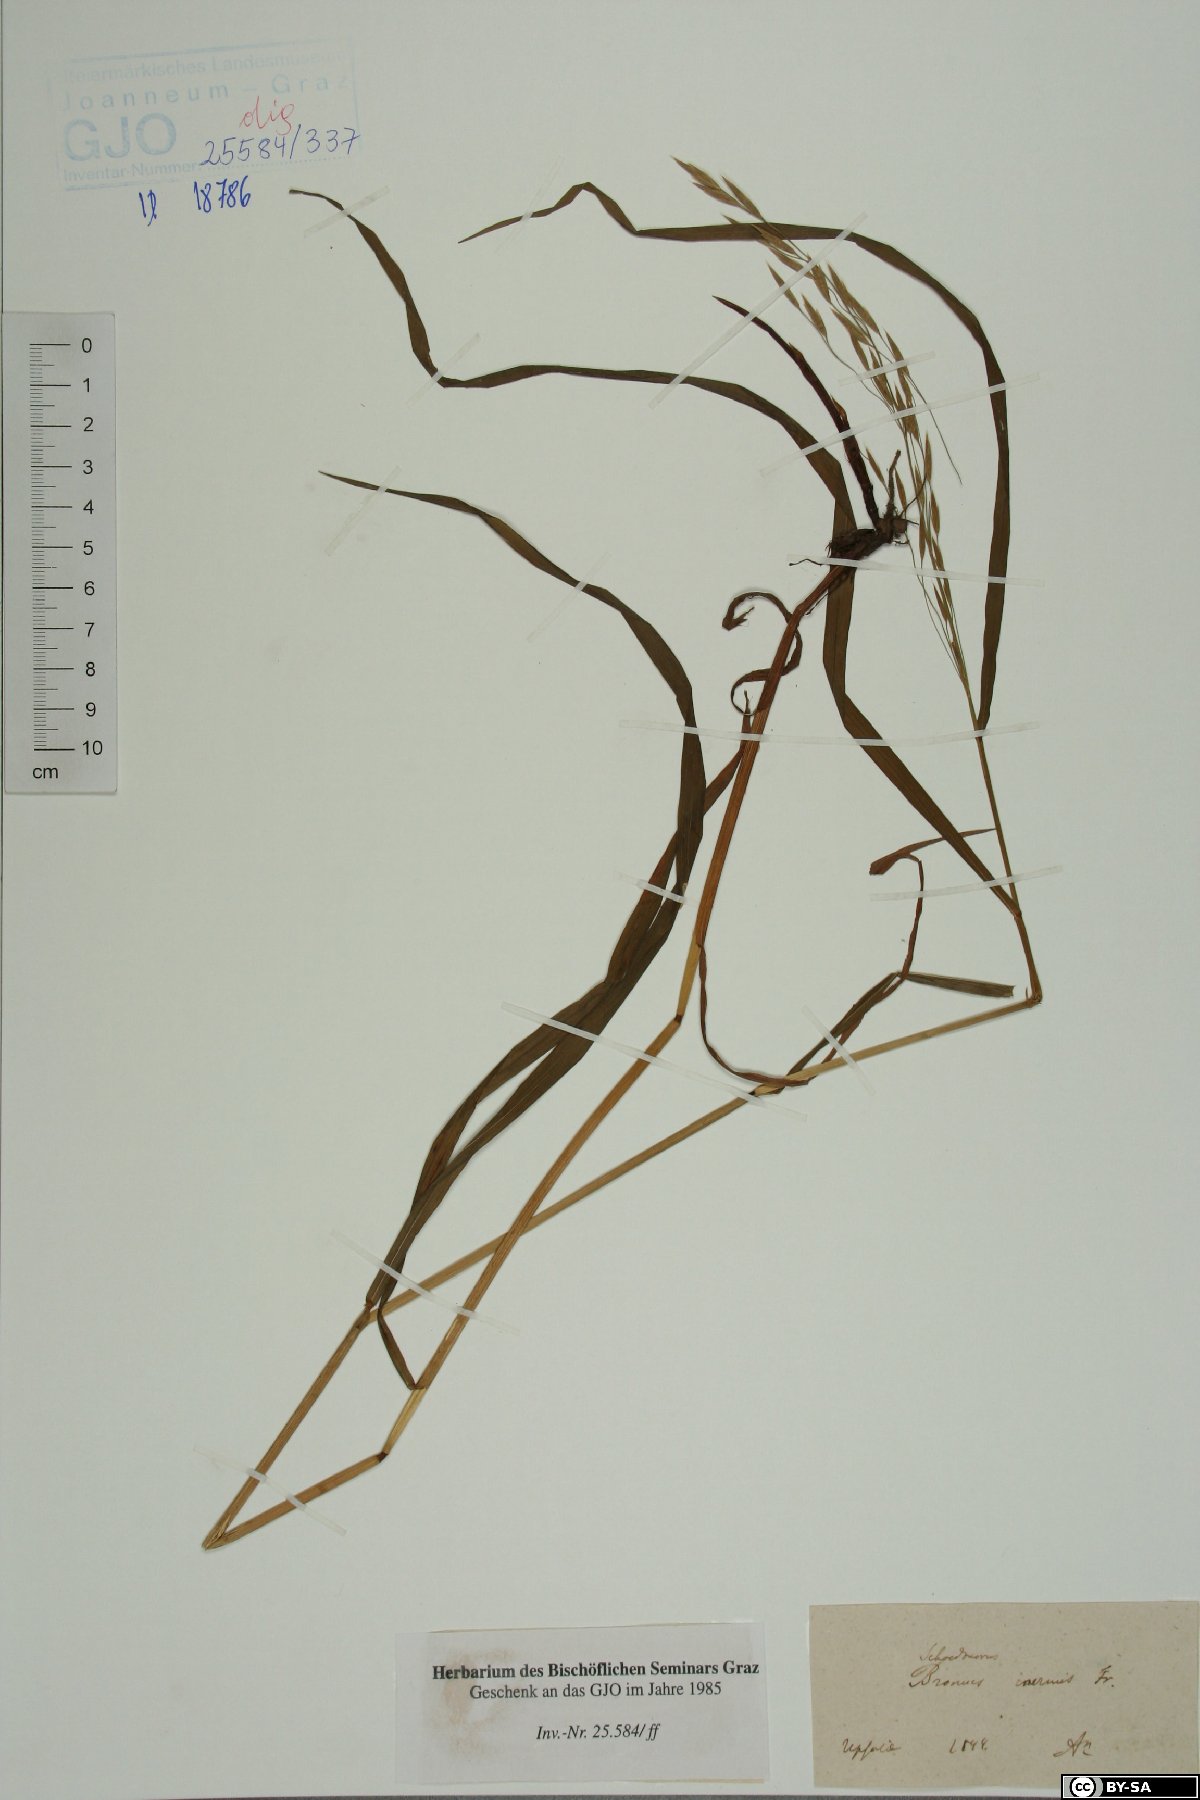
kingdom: Plantae
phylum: Tracheophyta
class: Liliopsida
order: Poales
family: Poaceae
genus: Bromus
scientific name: Bromus inermis
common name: Smooth brome
